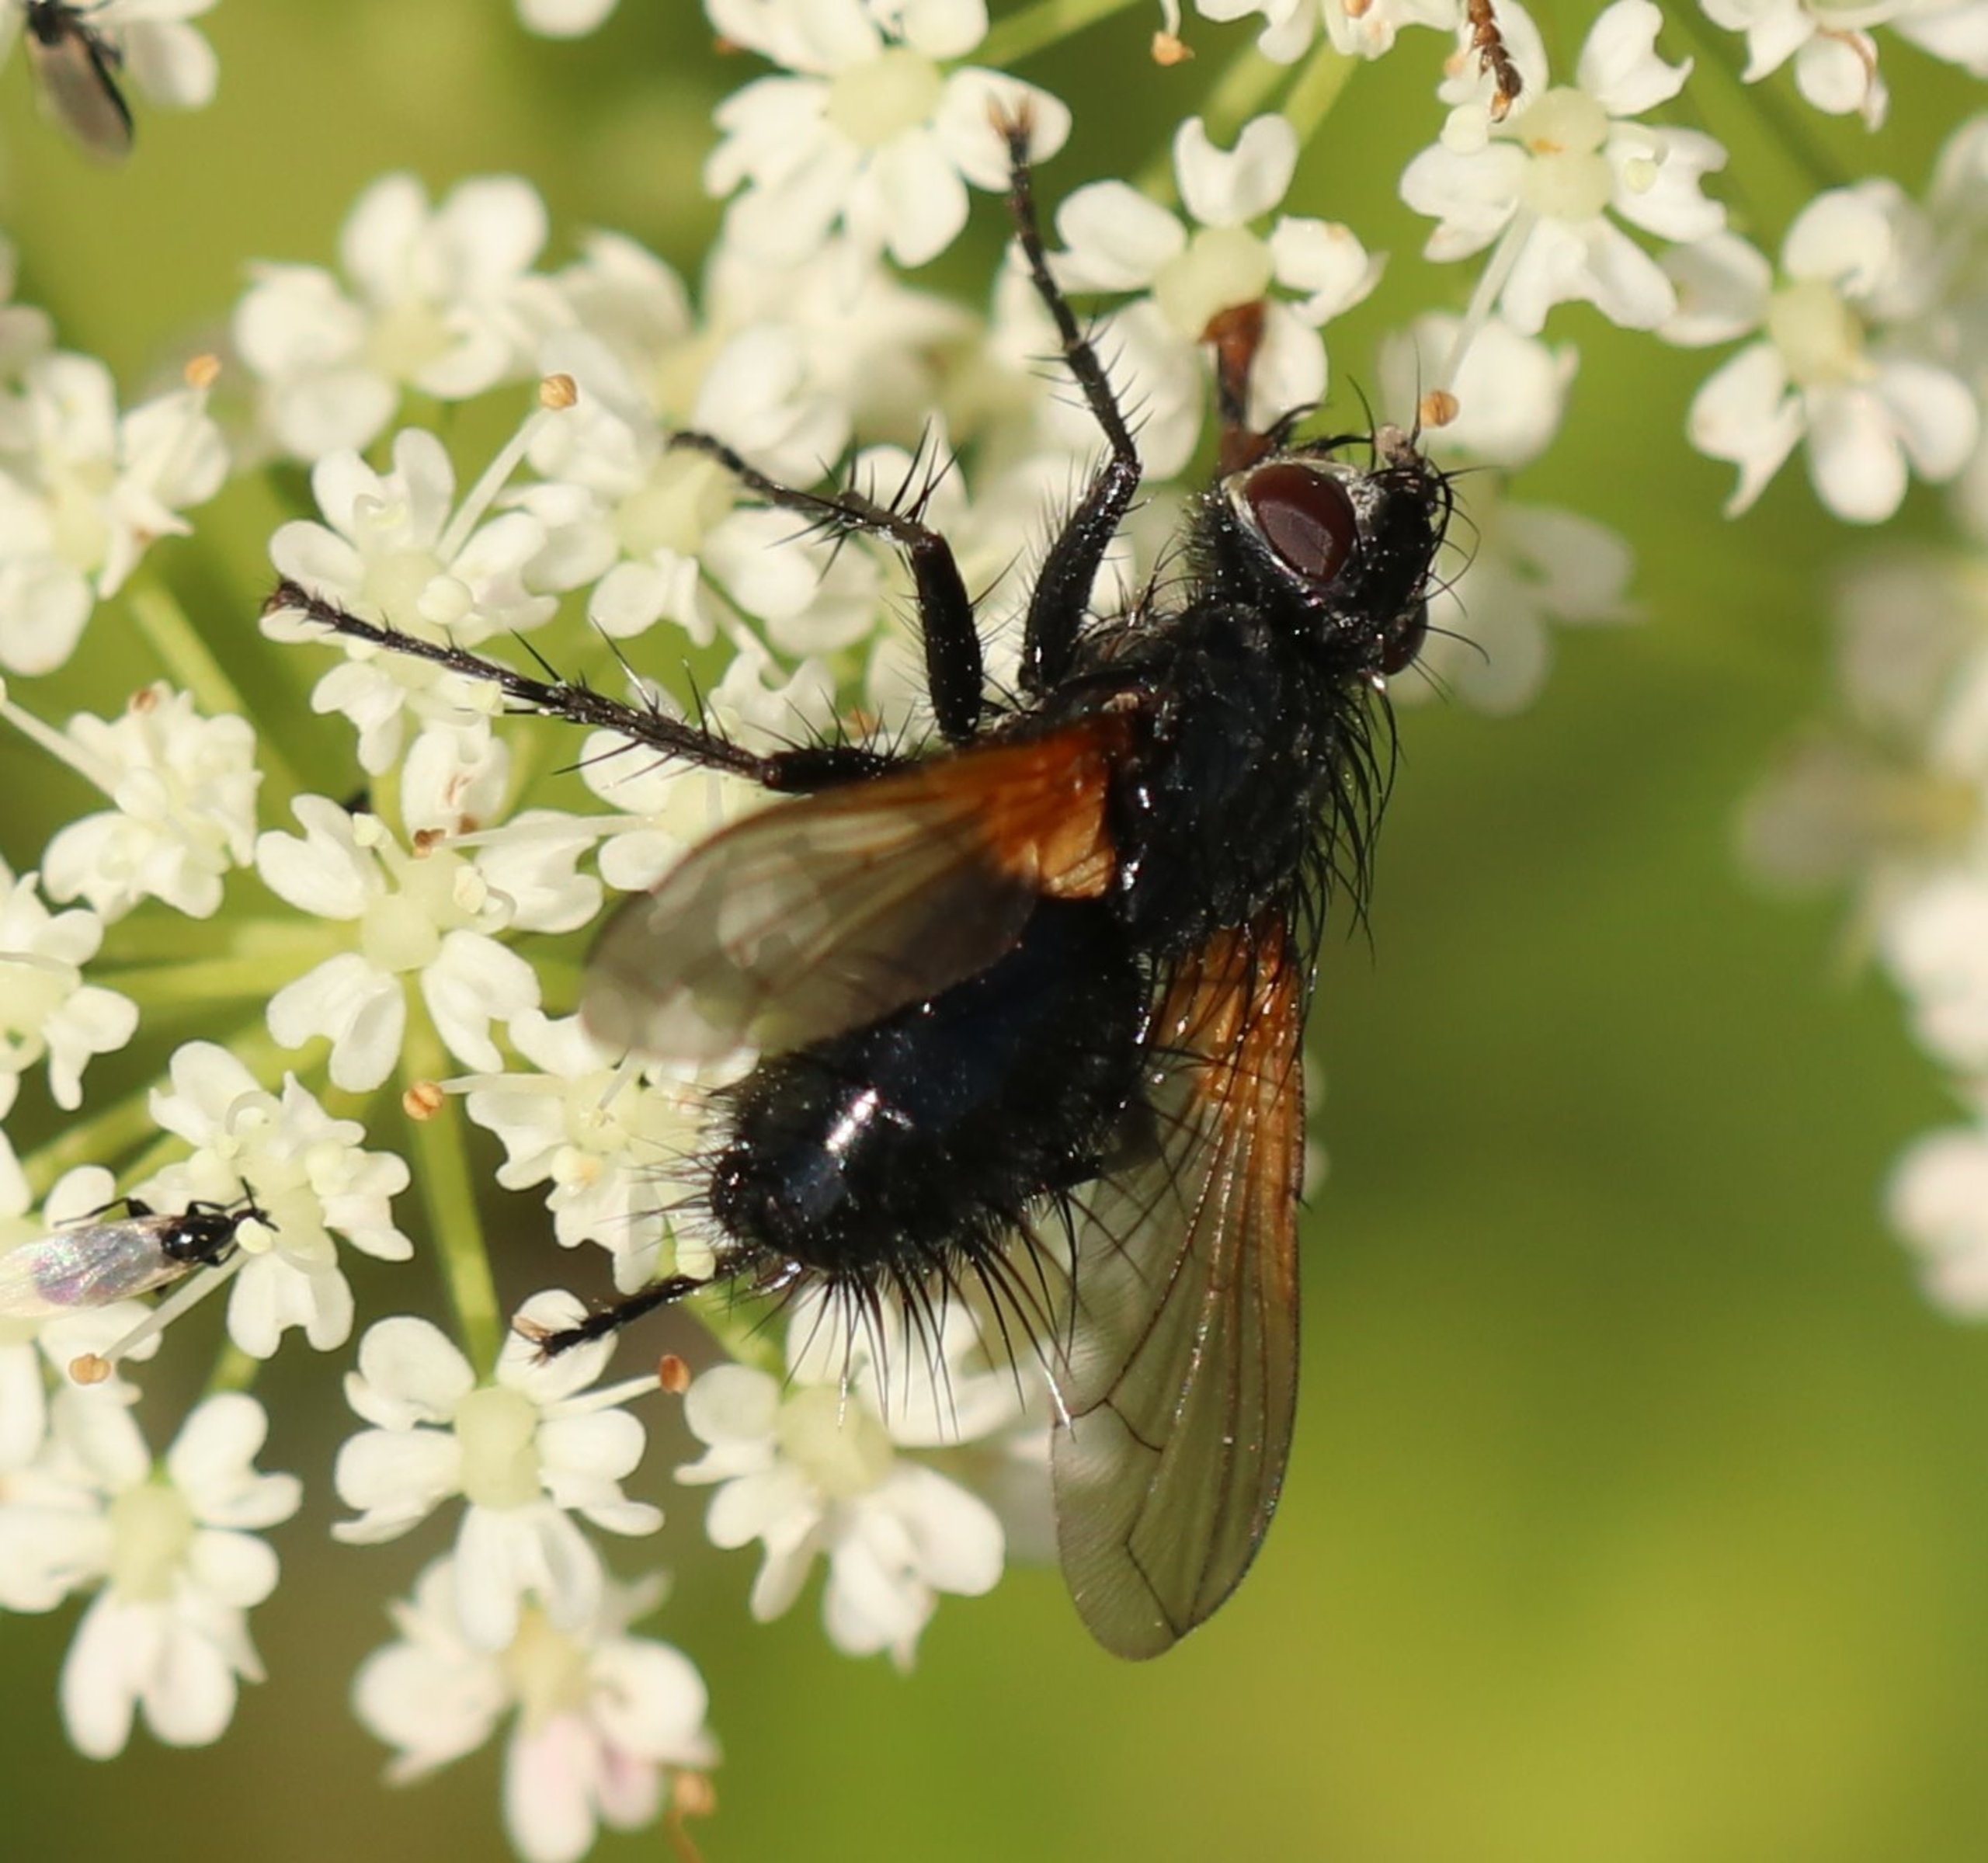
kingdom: Animalia
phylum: Arthropoda
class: Insecta
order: Diptera
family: Tachinidae
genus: Zophomyia
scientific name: Zophomyia temula
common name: Gulvinget snylteflue
